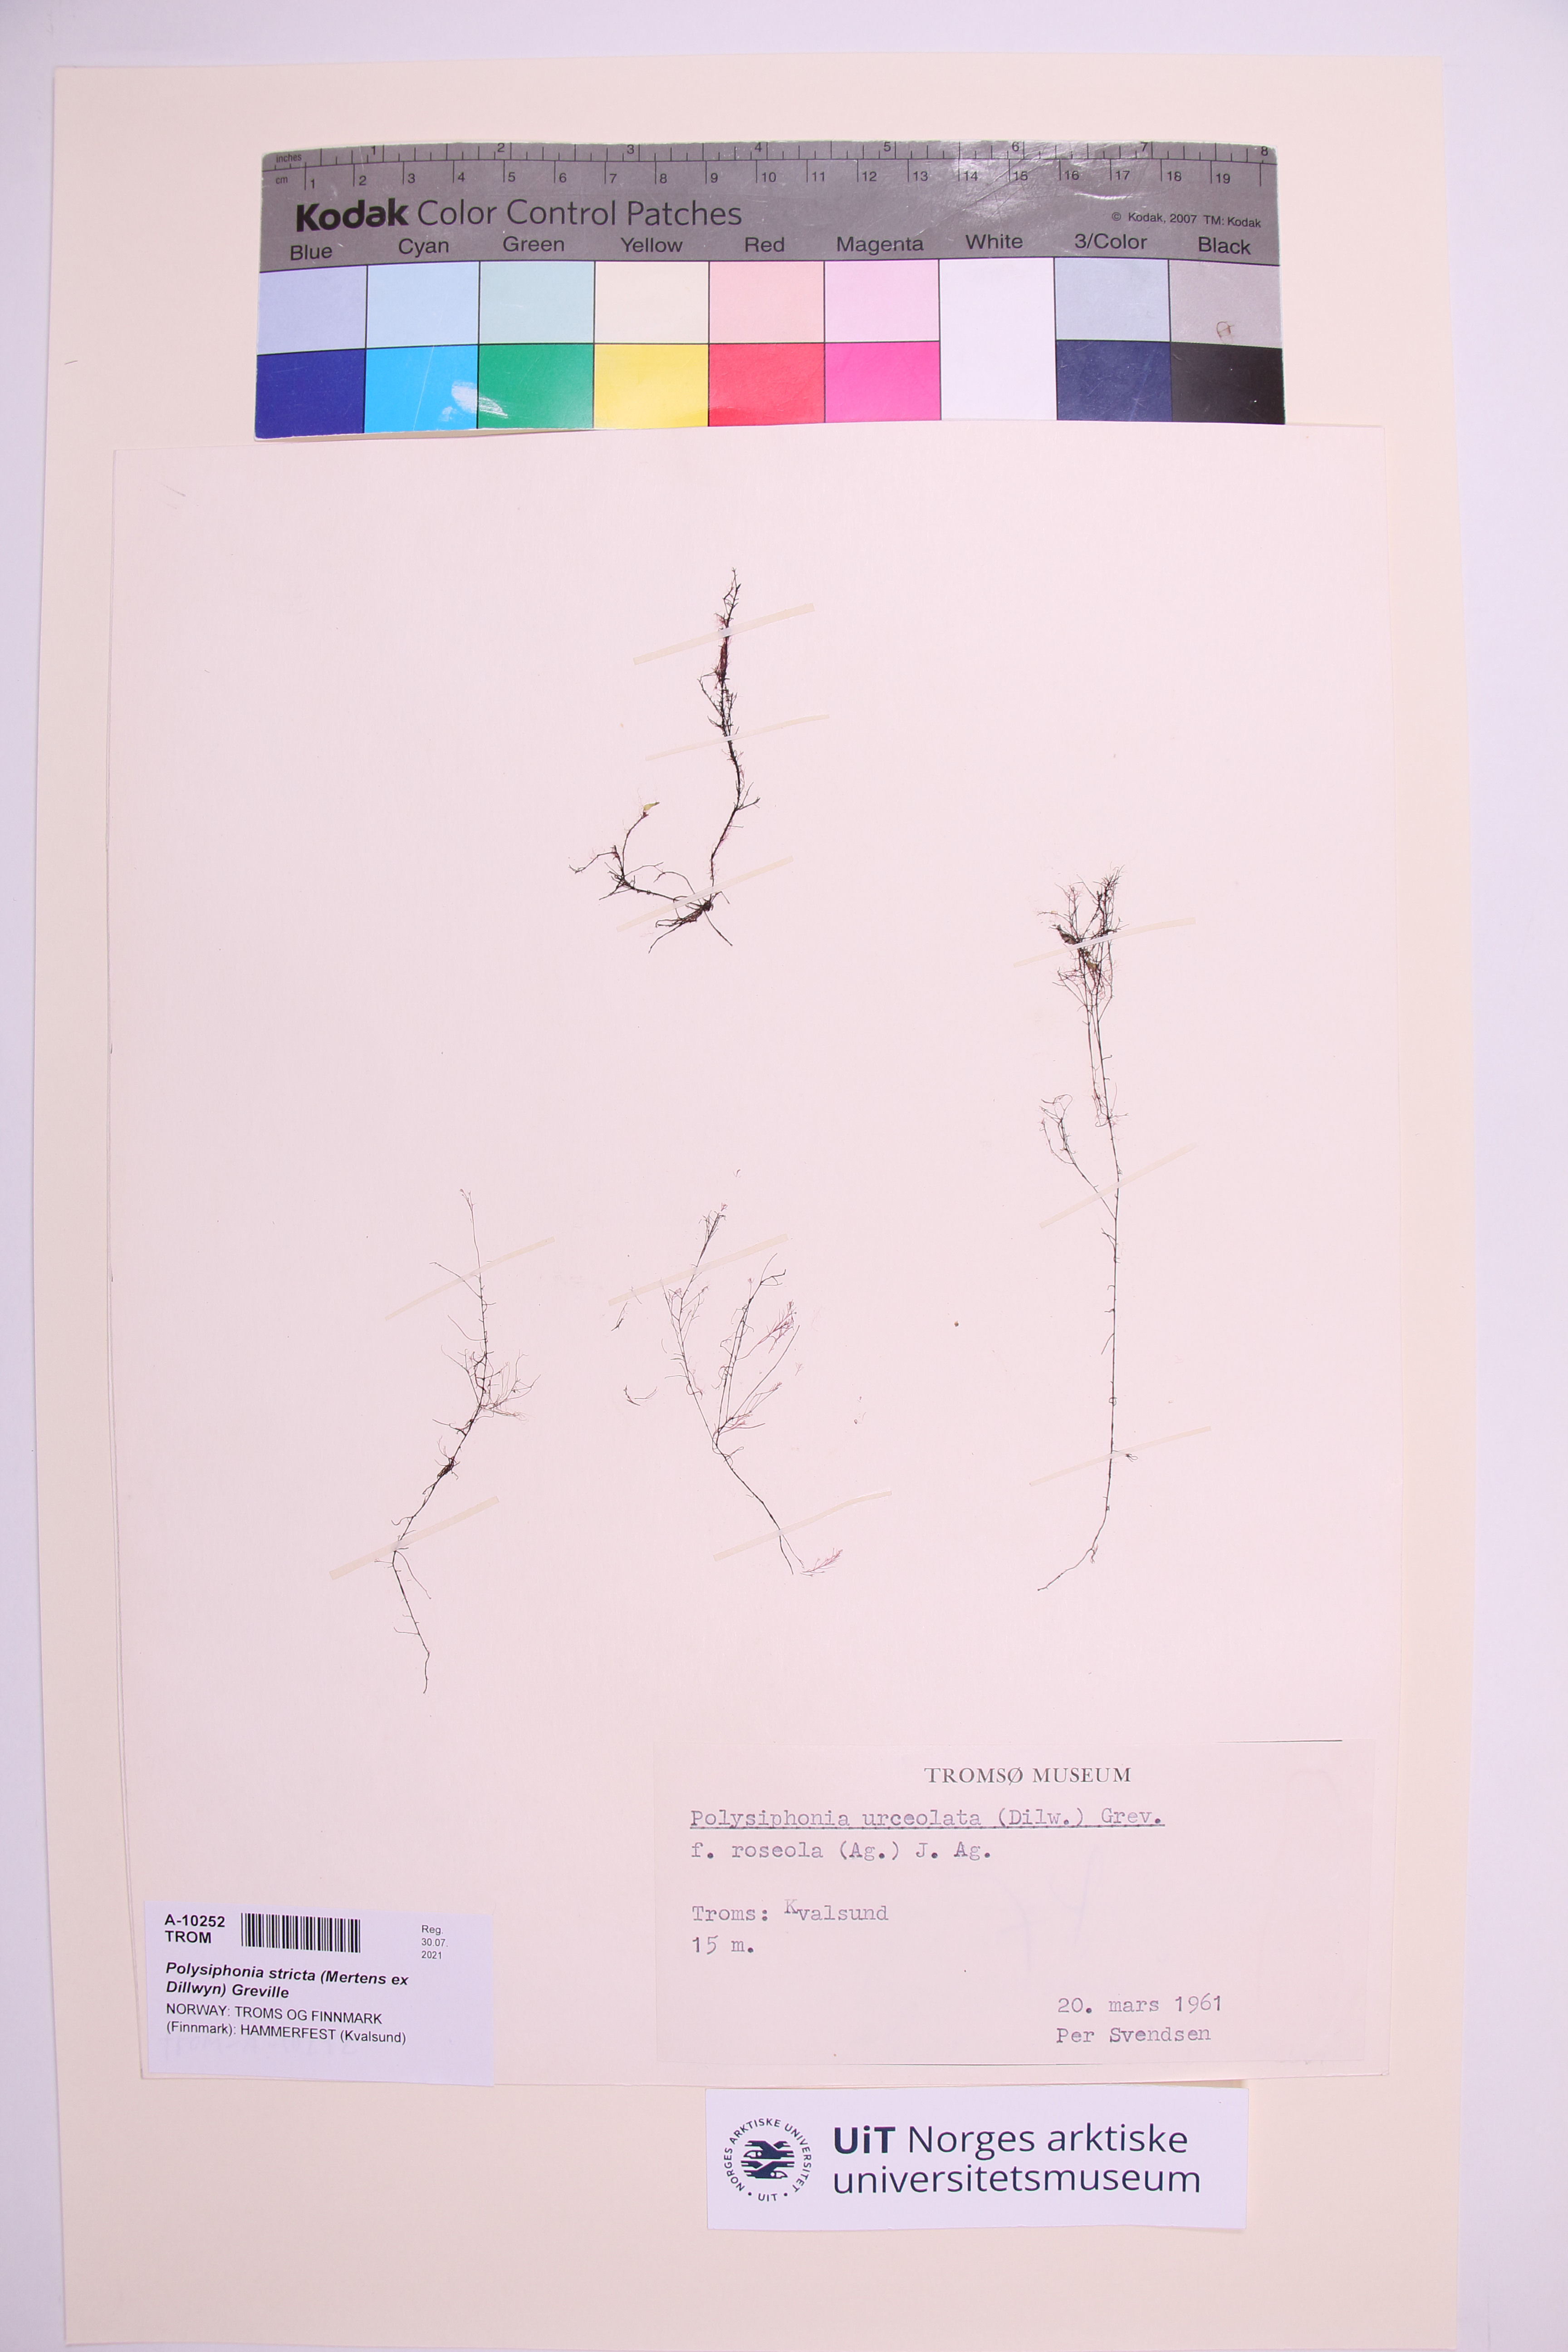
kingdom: Plantae
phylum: Rhodophyta
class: Florideophyceae
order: Ceramiales
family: Rhodomelaceae
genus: Polysiphonia
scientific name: Polysiphonia stricta
